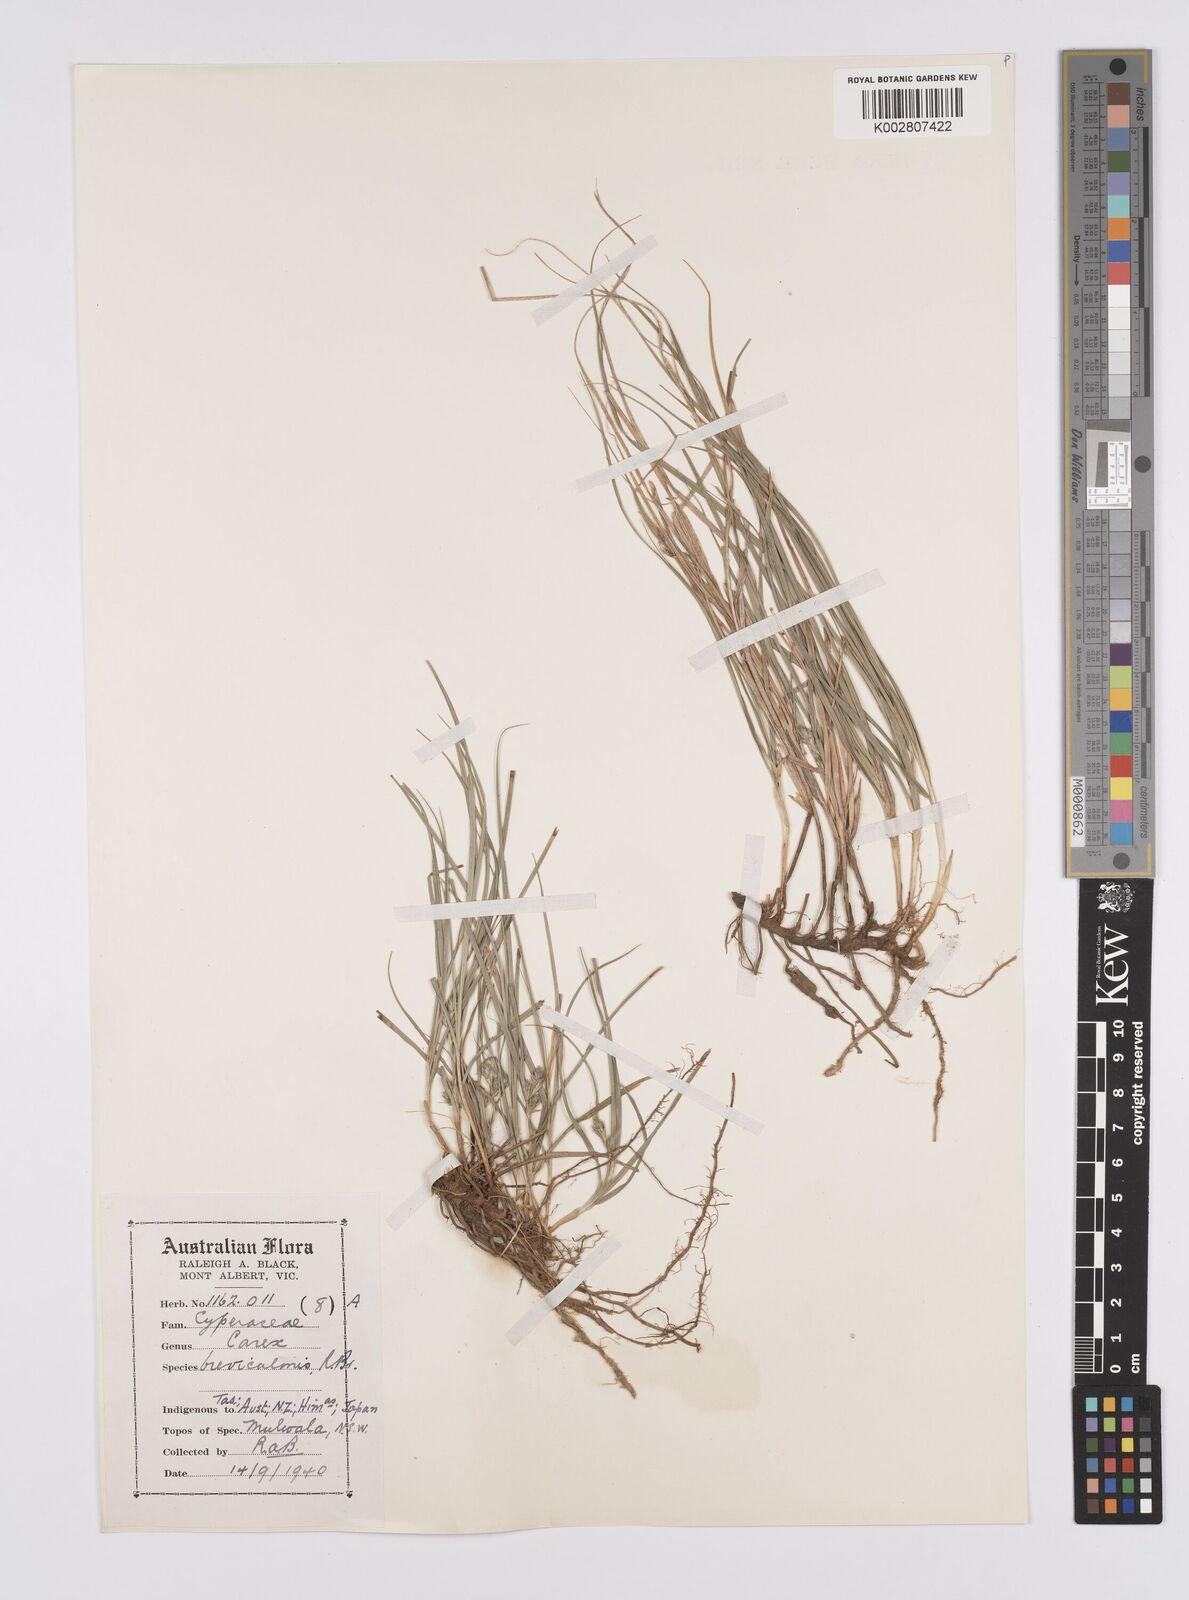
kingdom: Plantae
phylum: Tracheophyta
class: Liliopsida
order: Poales
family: Cyperaceae
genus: Carex
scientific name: Carex breviculmis
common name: Asian shortstem sedge
